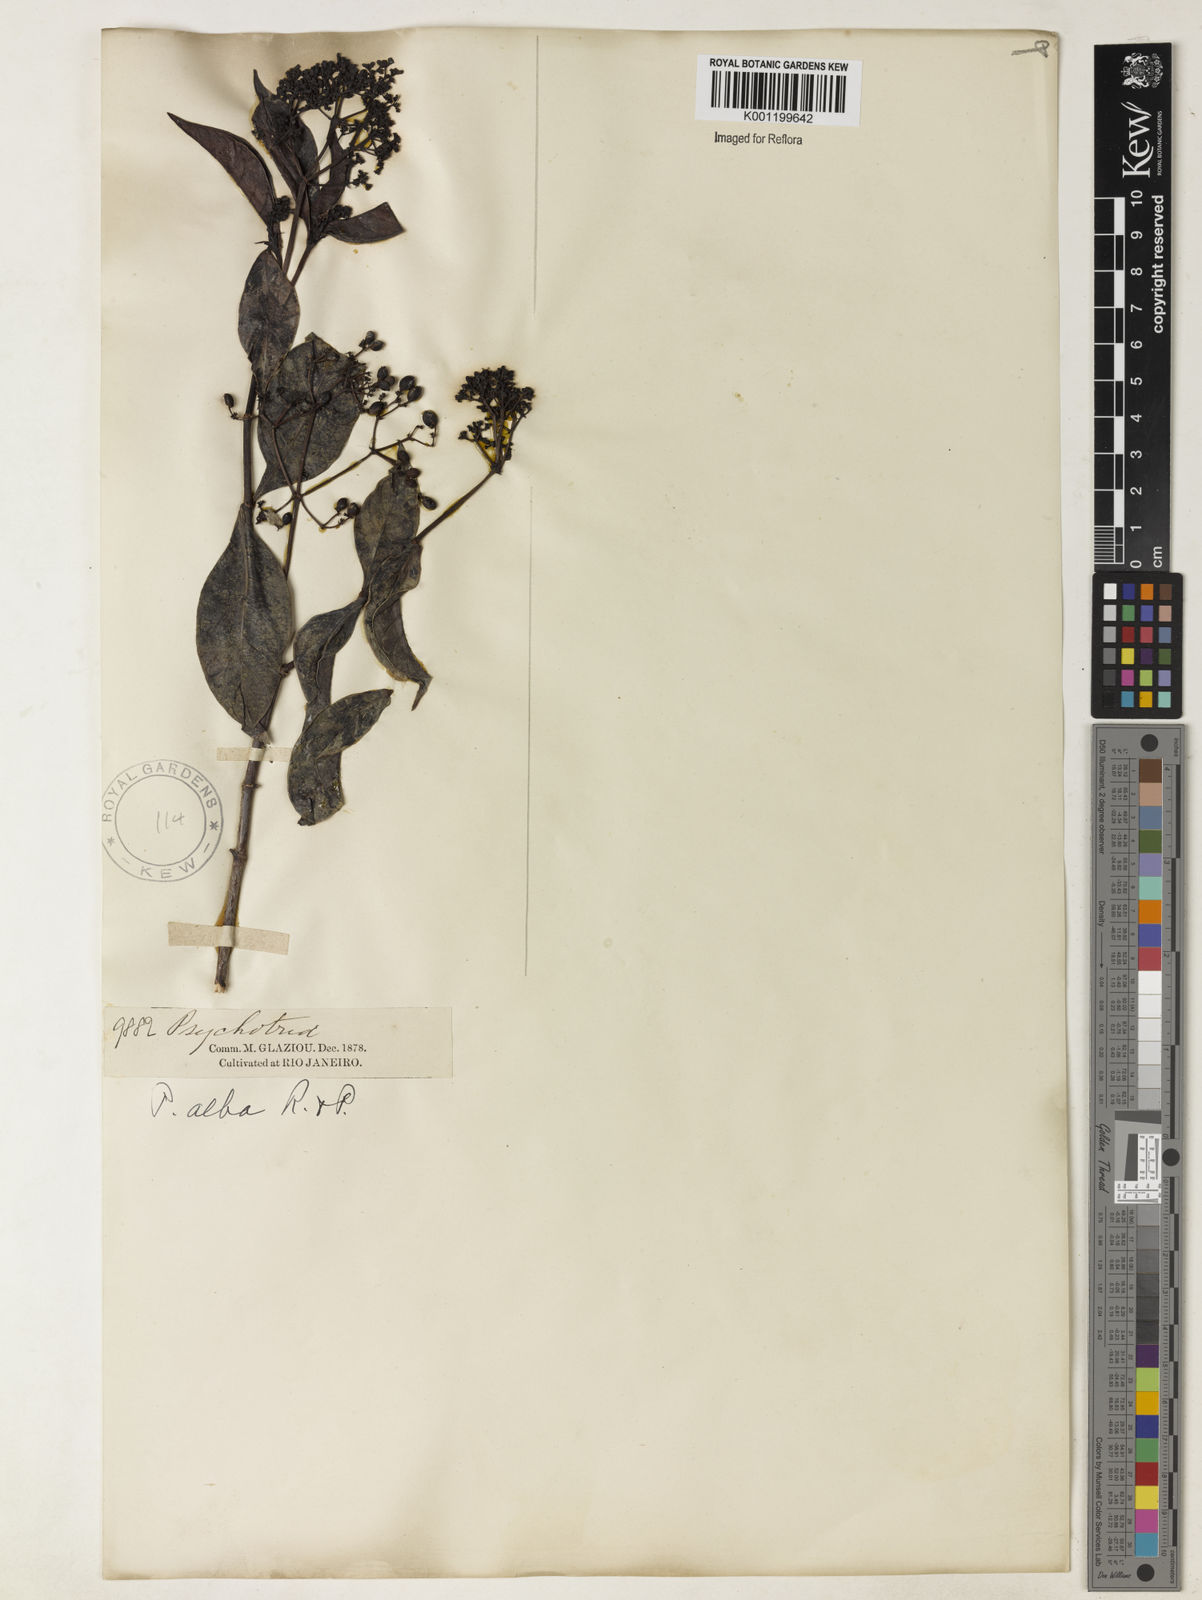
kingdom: Plantae
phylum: Tracheophyta
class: Magnoliopsida
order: Gentianales
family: Rubiaceae
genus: Psychotria
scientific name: Psychotria carthagenensis
